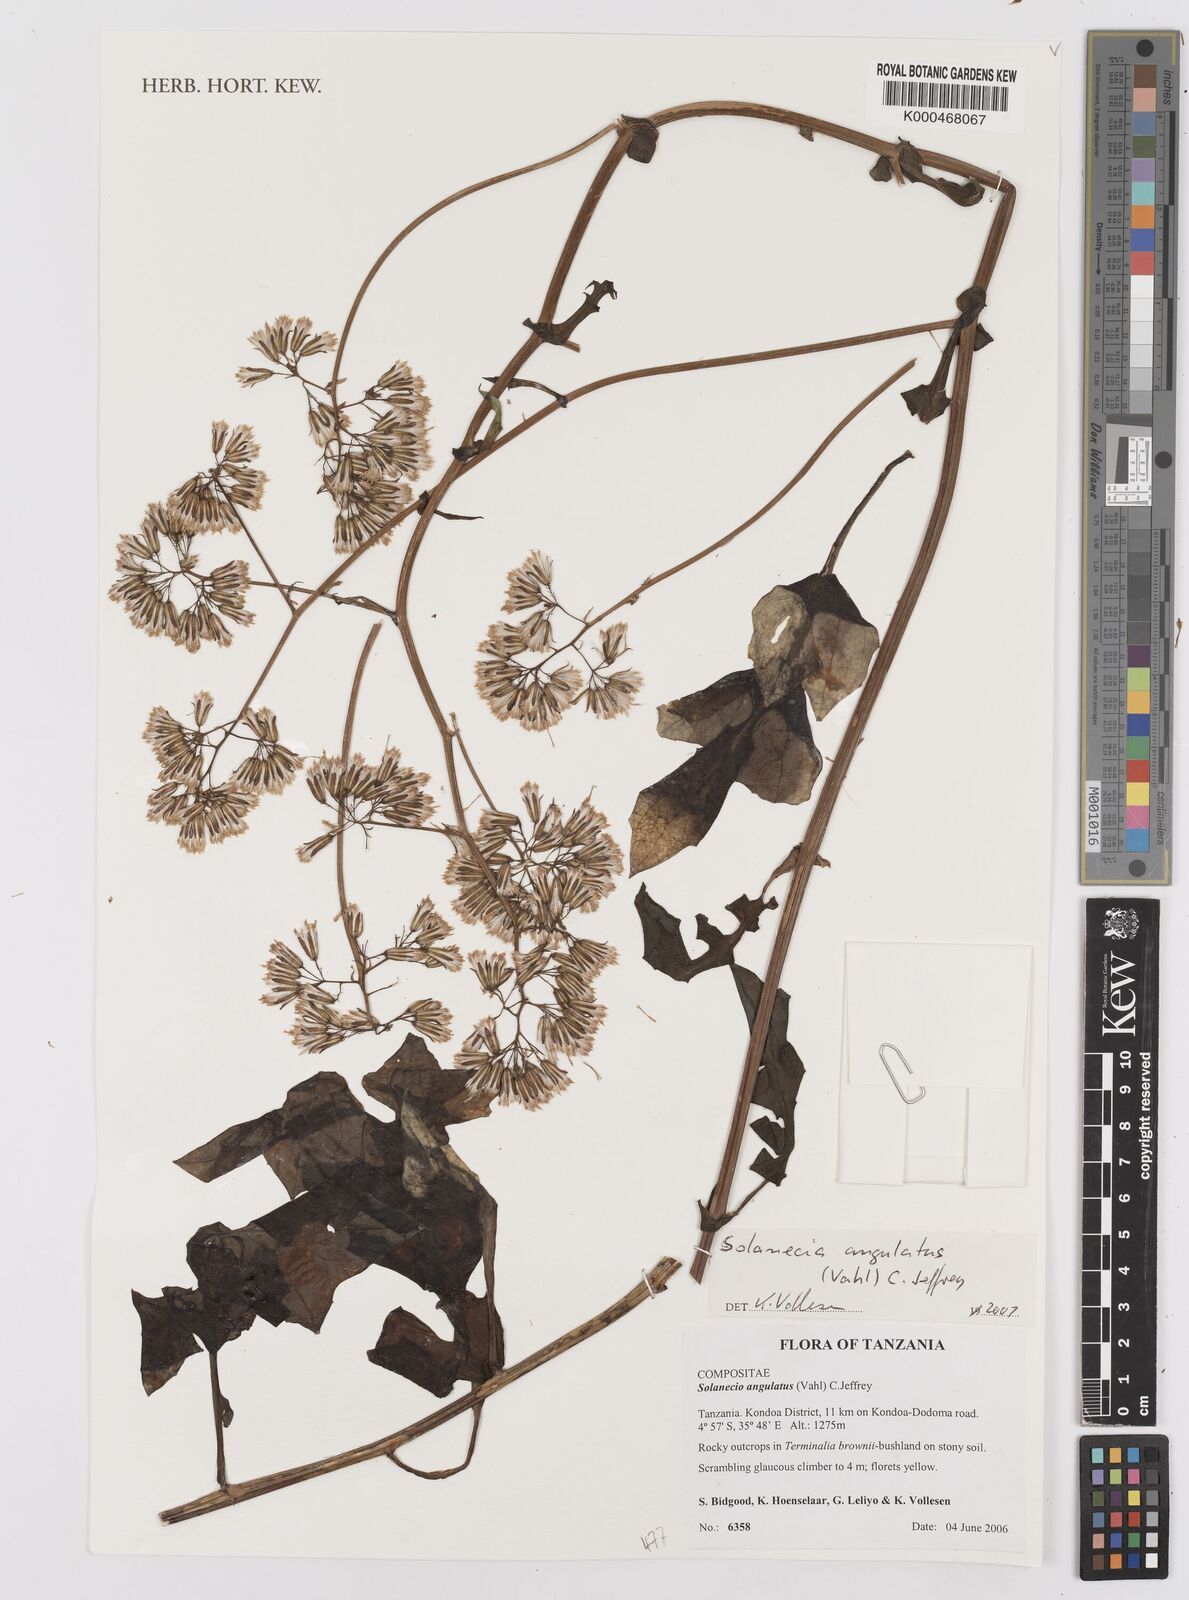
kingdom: Plantae
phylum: Tracheophyta
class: Magnoliopsida
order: Asterales
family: Asteraceae
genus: Solanecio
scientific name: Solanecio angulatus
